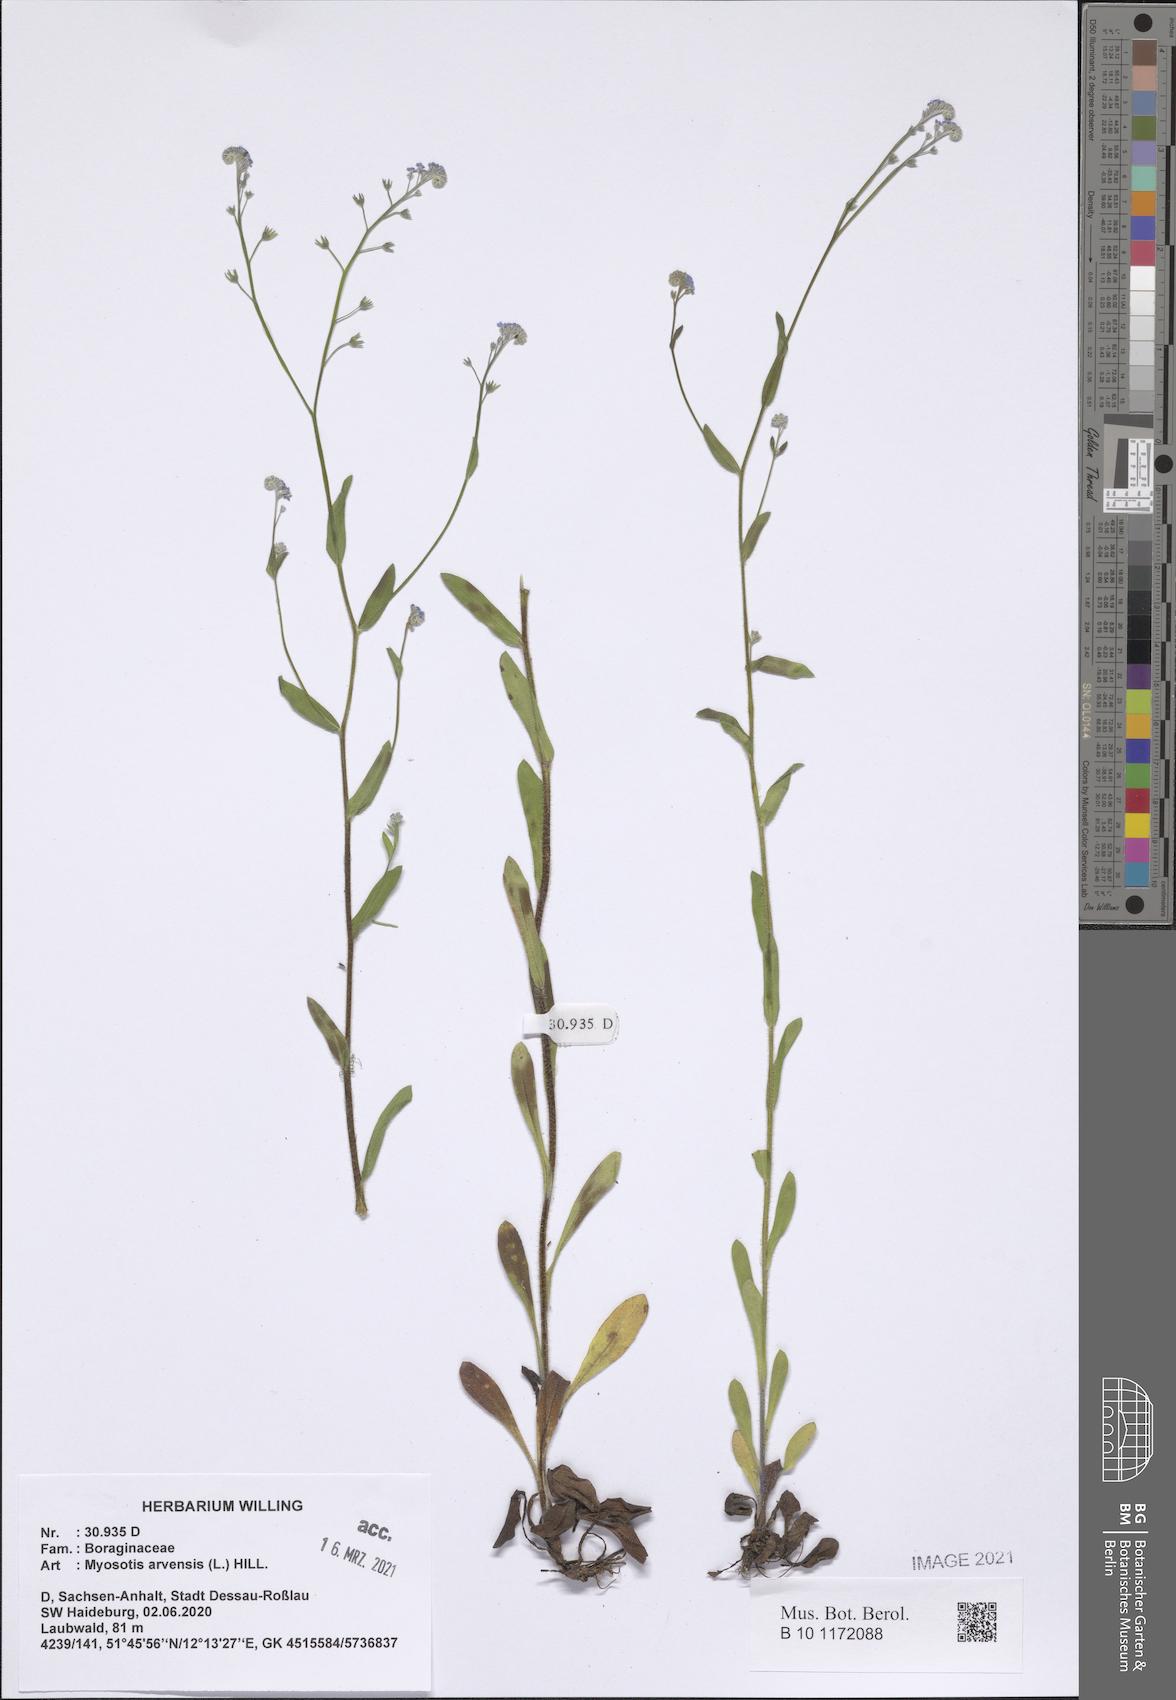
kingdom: Plantae
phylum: Tracheophyta
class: Magnoliopsida
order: Boraginales
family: Boraginaceae
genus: Myosotis
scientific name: Myosotis arvensis
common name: Field forget-me-not
